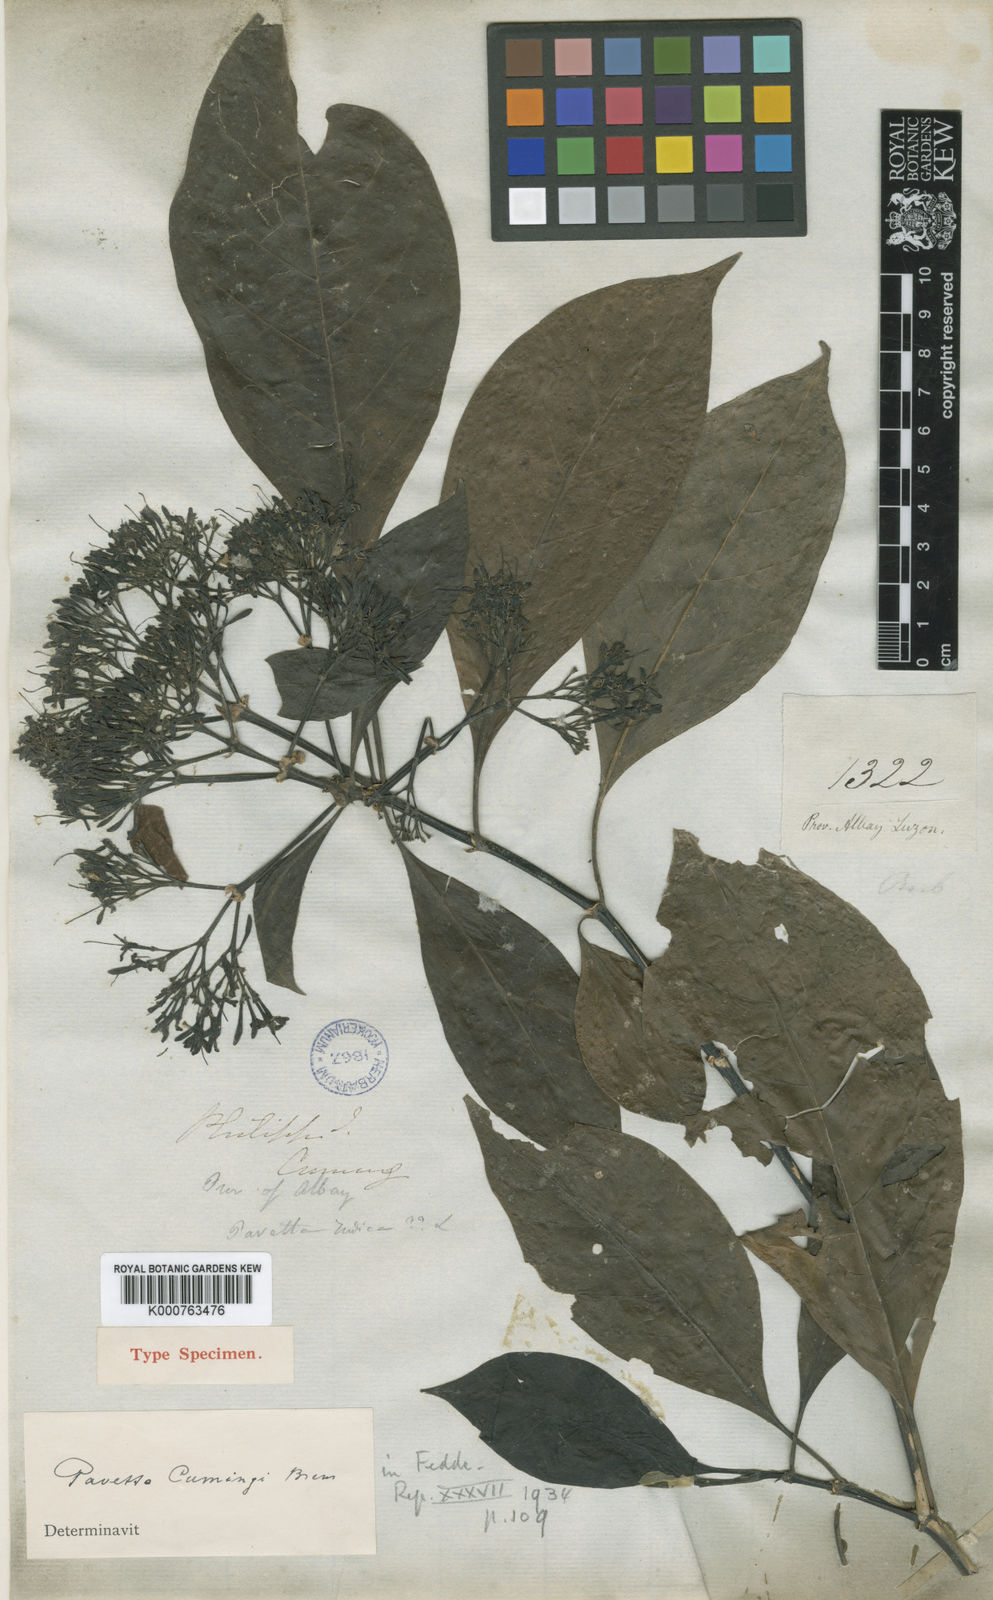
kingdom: Plantae
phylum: Tracheophyta
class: Magnoliopsida
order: Gentianales
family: Rubiaceae
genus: Pavetta
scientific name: Pavetta cumingii
